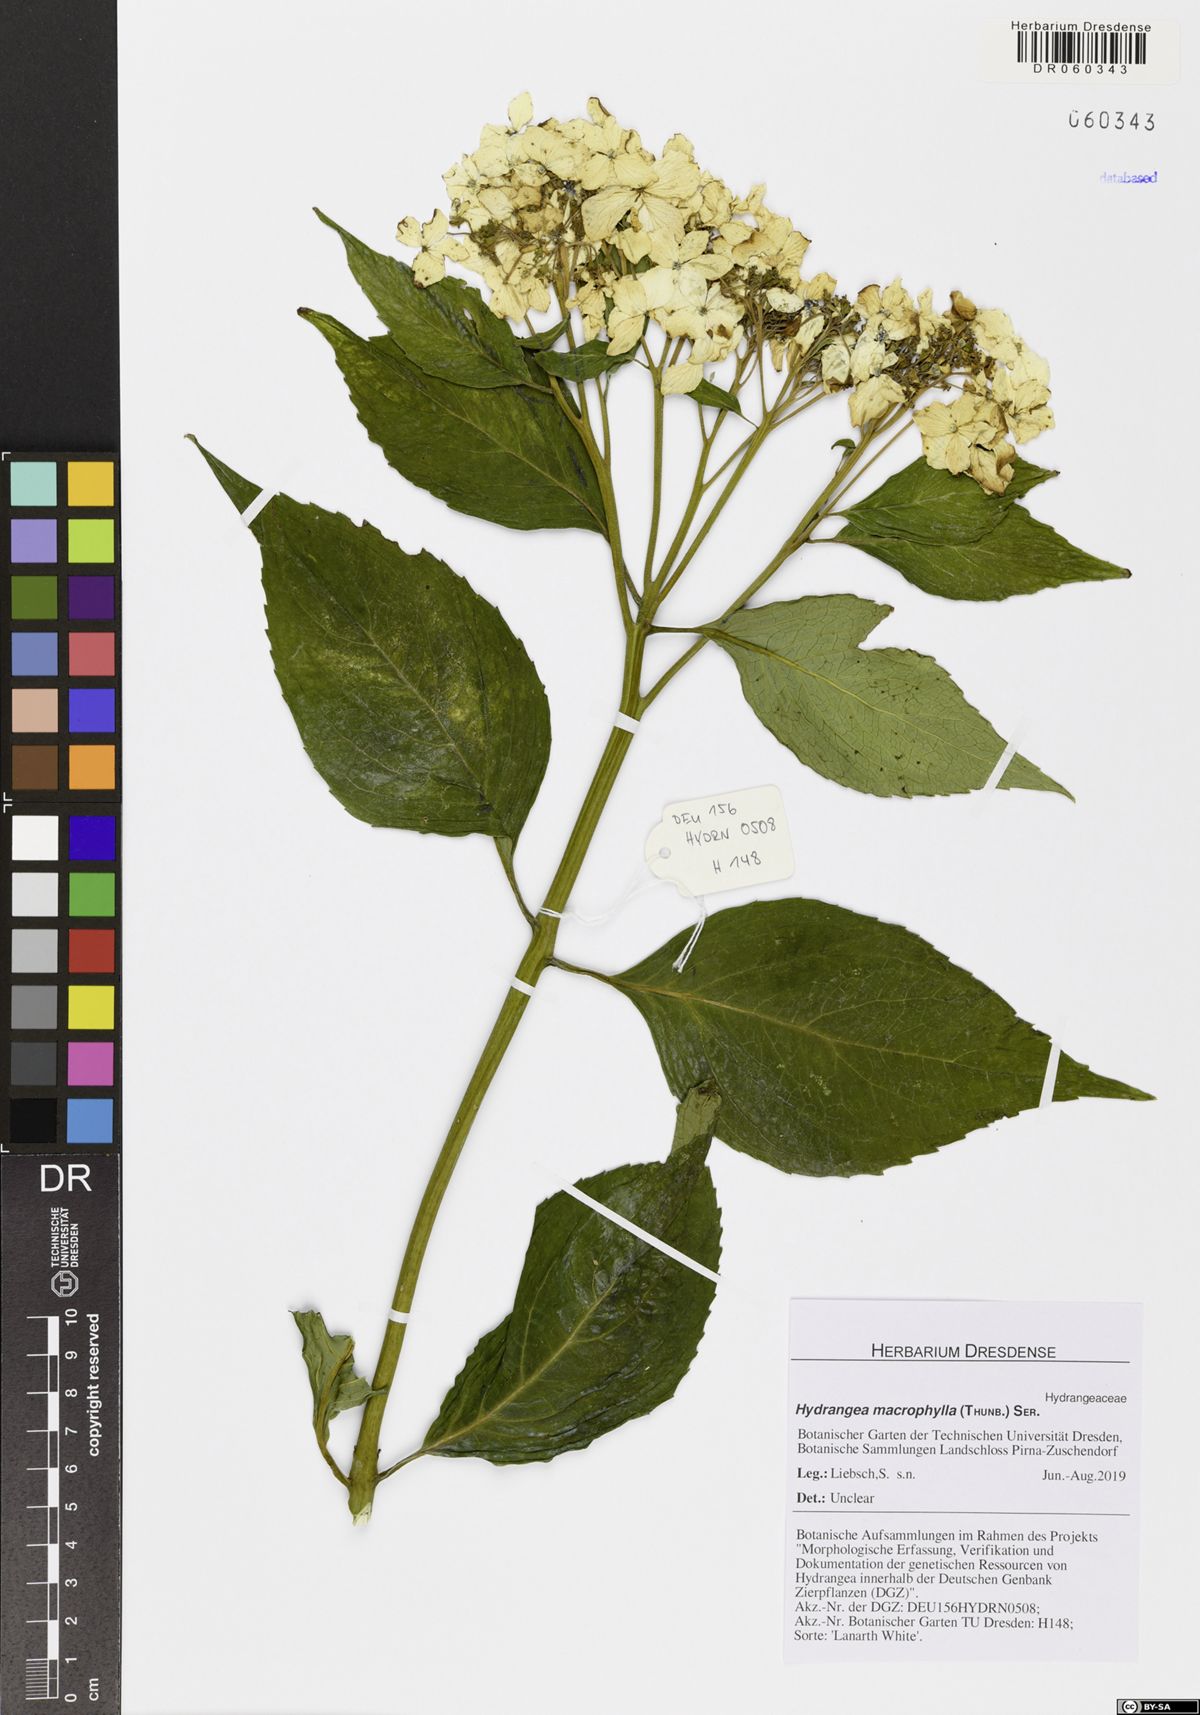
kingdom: Plantae
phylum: Tracheophyta
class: Magnoliopsida
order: Cornales
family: Hydrangeaceae
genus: Hydrangea
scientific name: Hydrangea macrophylla
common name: Hydrangea
